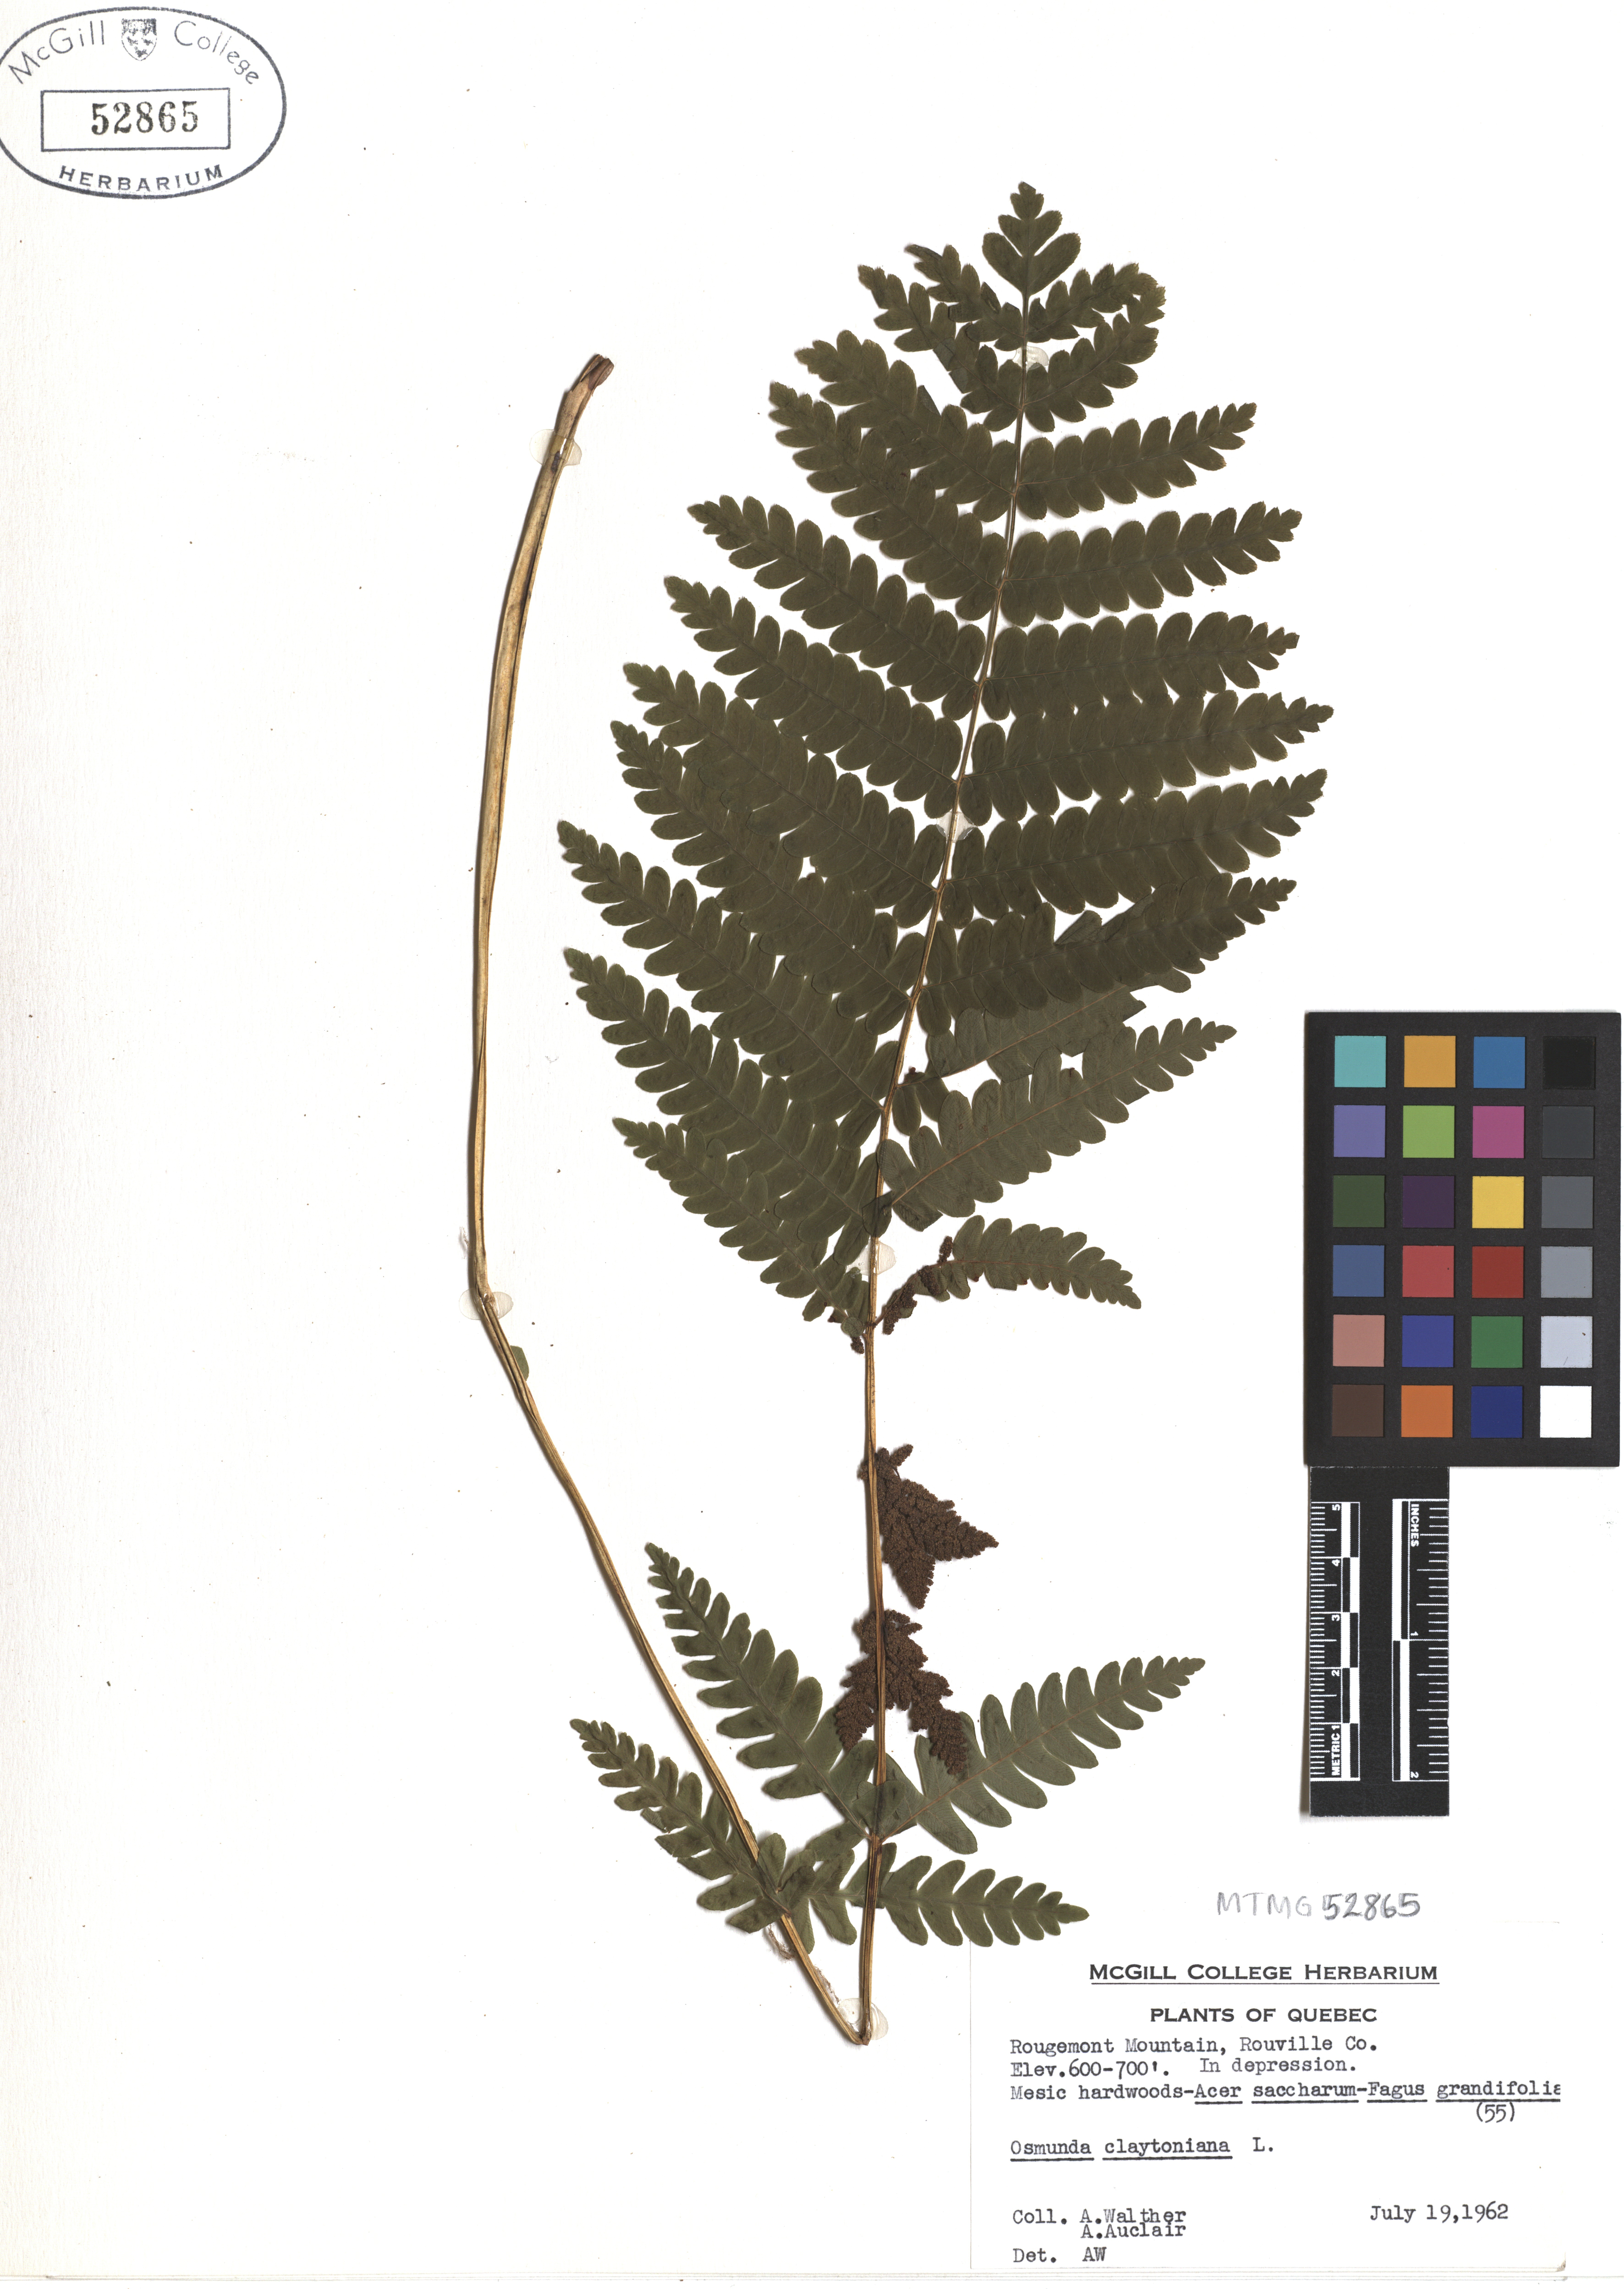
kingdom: Plantae
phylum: Tracheophyta
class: Polypodiopsida
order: Osmundales
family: Osmundaceae
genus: Claytosmunda
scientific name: Claytosmunda claytoniana
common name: Clayton's fern
